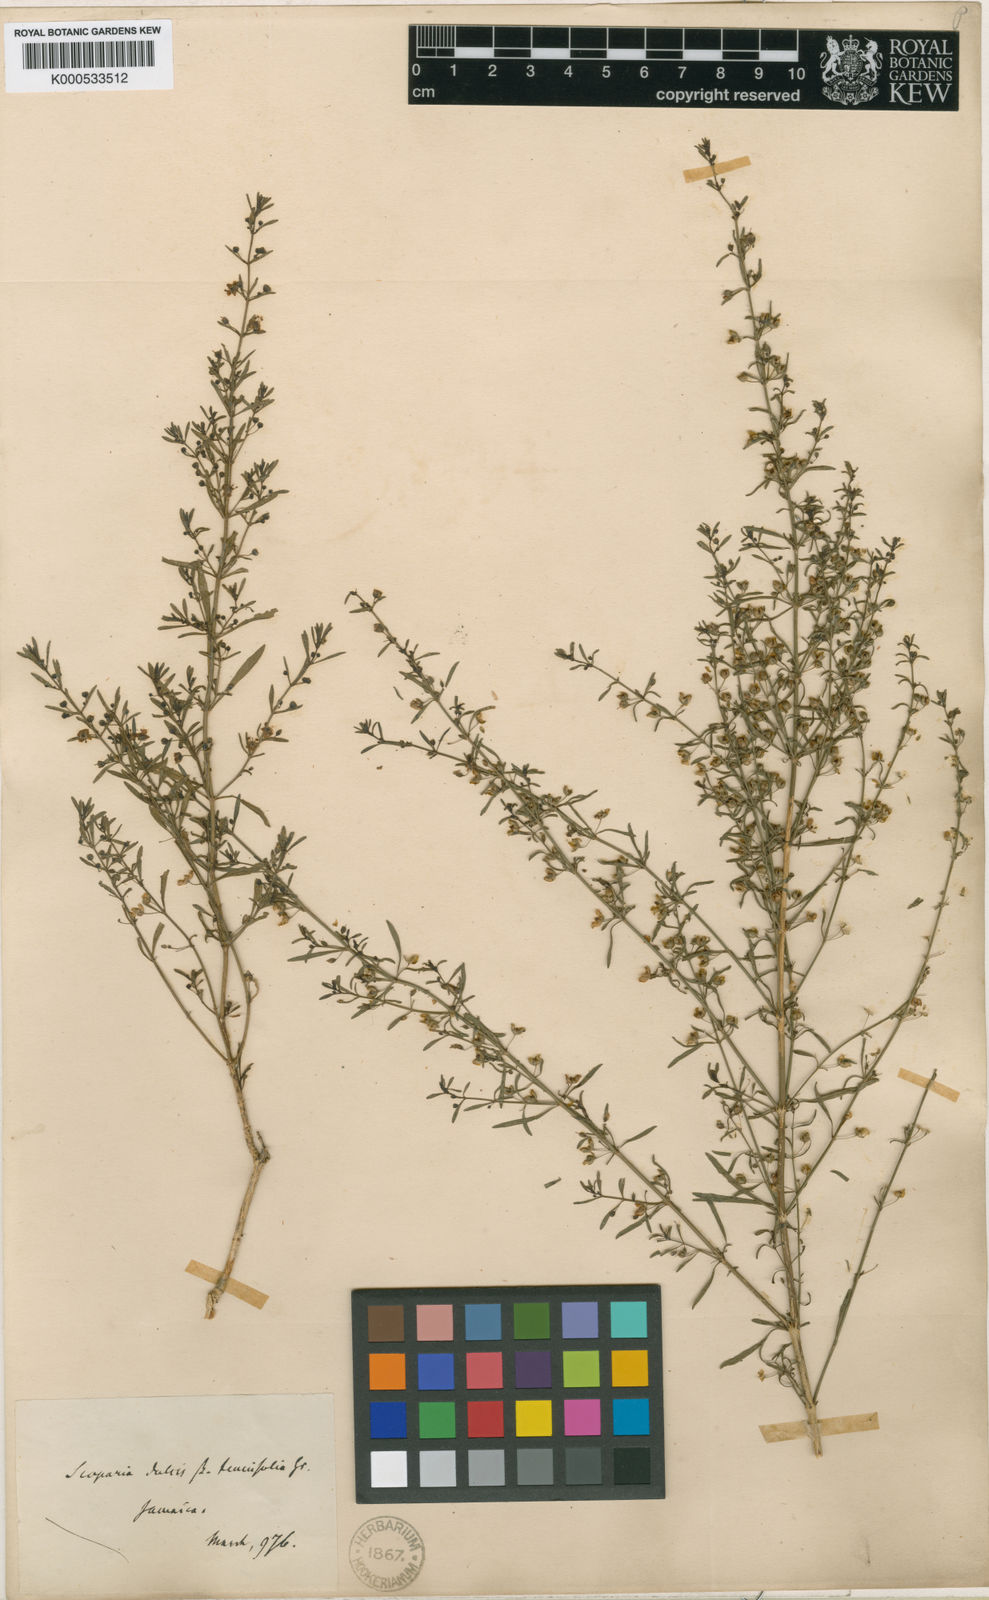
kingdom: Plantae
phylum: Tracheophyta
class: Magnoliopsida
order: Lamiales
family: Plantaginaceae
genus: Scoparia
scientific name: Scoparia dulcis
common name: Scoparia-weed
